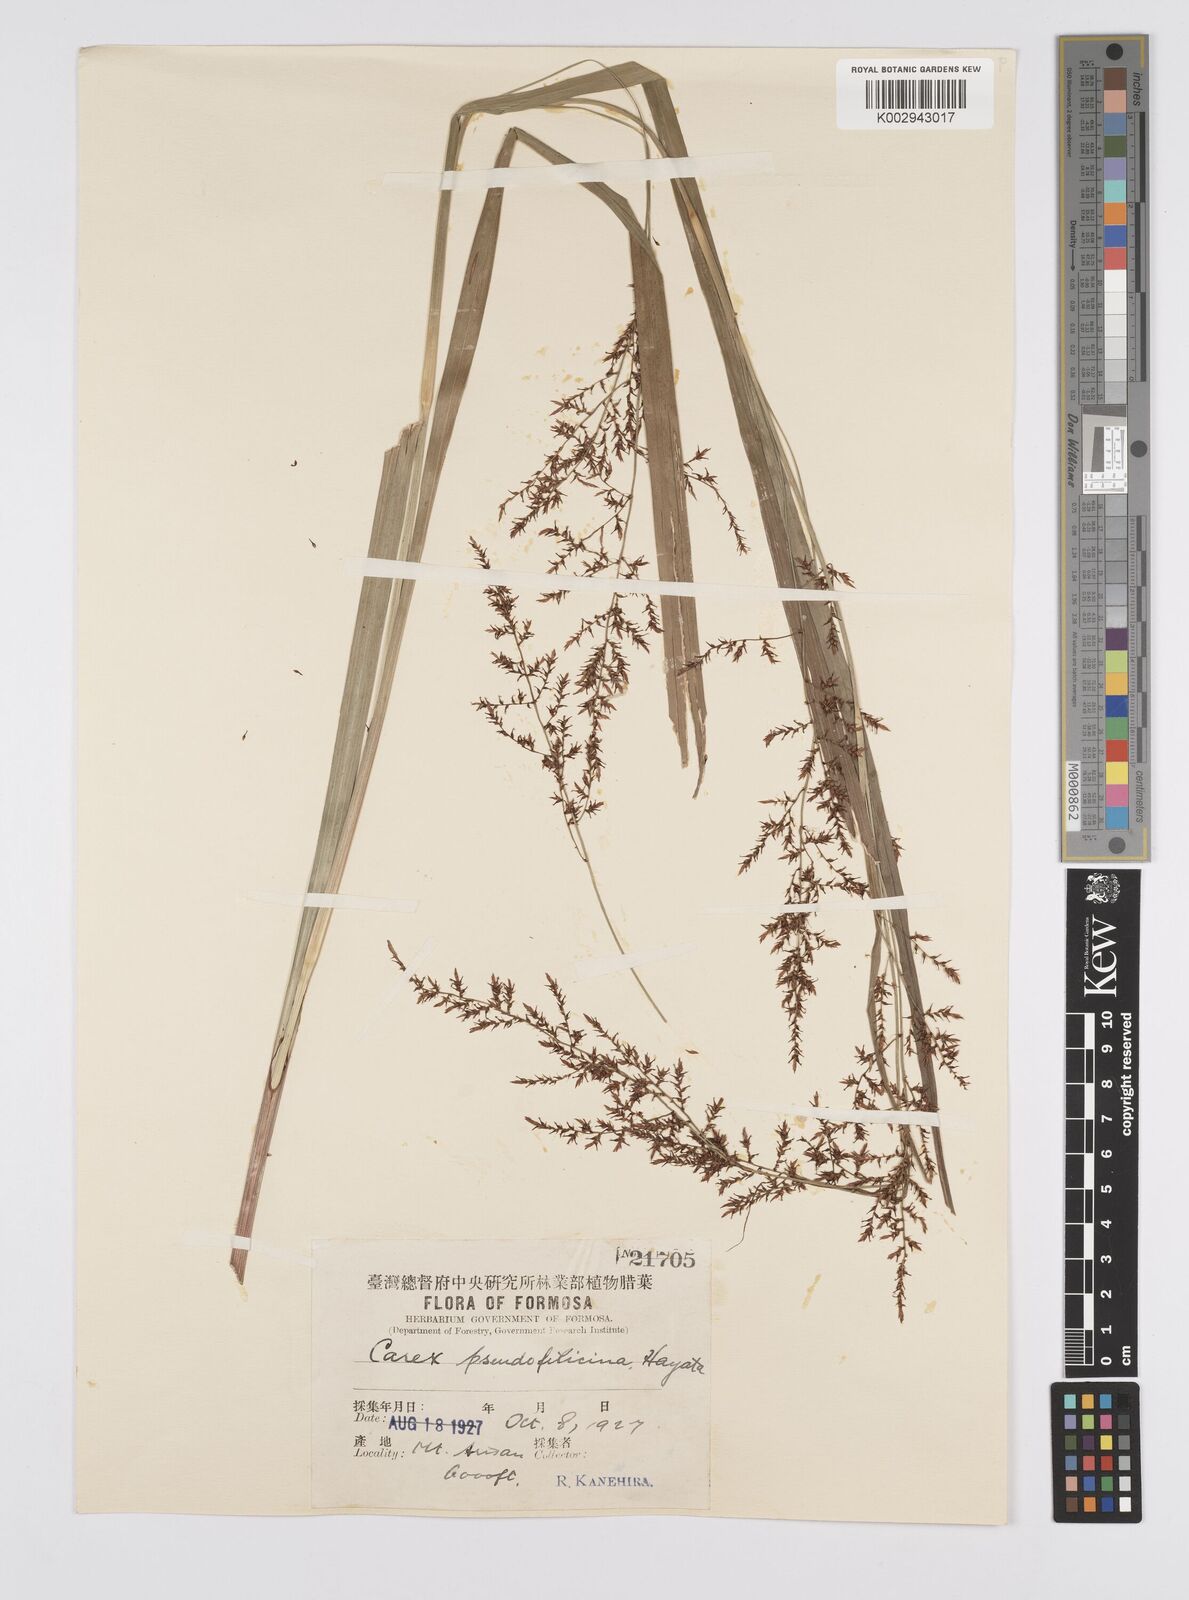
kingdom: Plantae
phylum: Tracheophyta
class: Liliopsida
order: Poales
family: Cyperaceae
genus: Carex
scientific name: Carex nubigena
